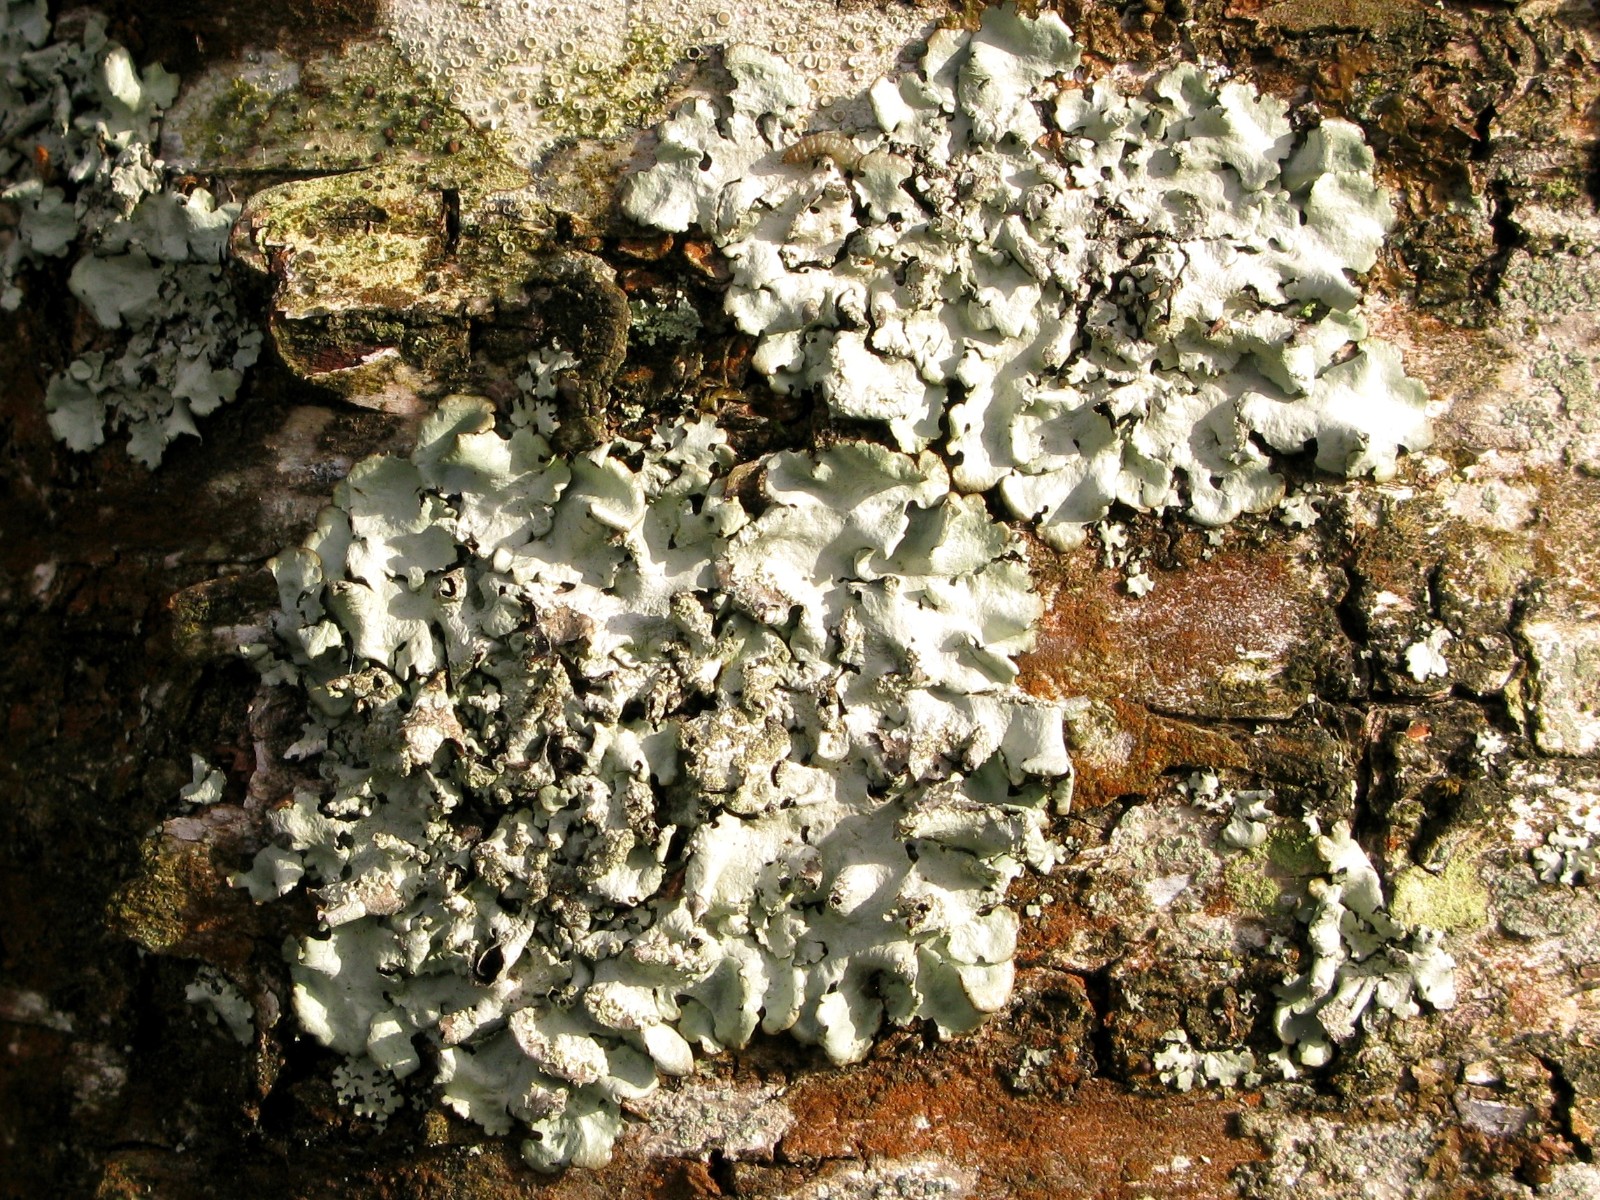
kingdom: Fungi
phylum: Ascomycota
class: Lecanoromycetes
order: Lecanorales
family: Parmeliaceae
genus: Hypotrachyna
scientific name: Hypotrachyna afrorevoluta
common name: kyst-skållav
